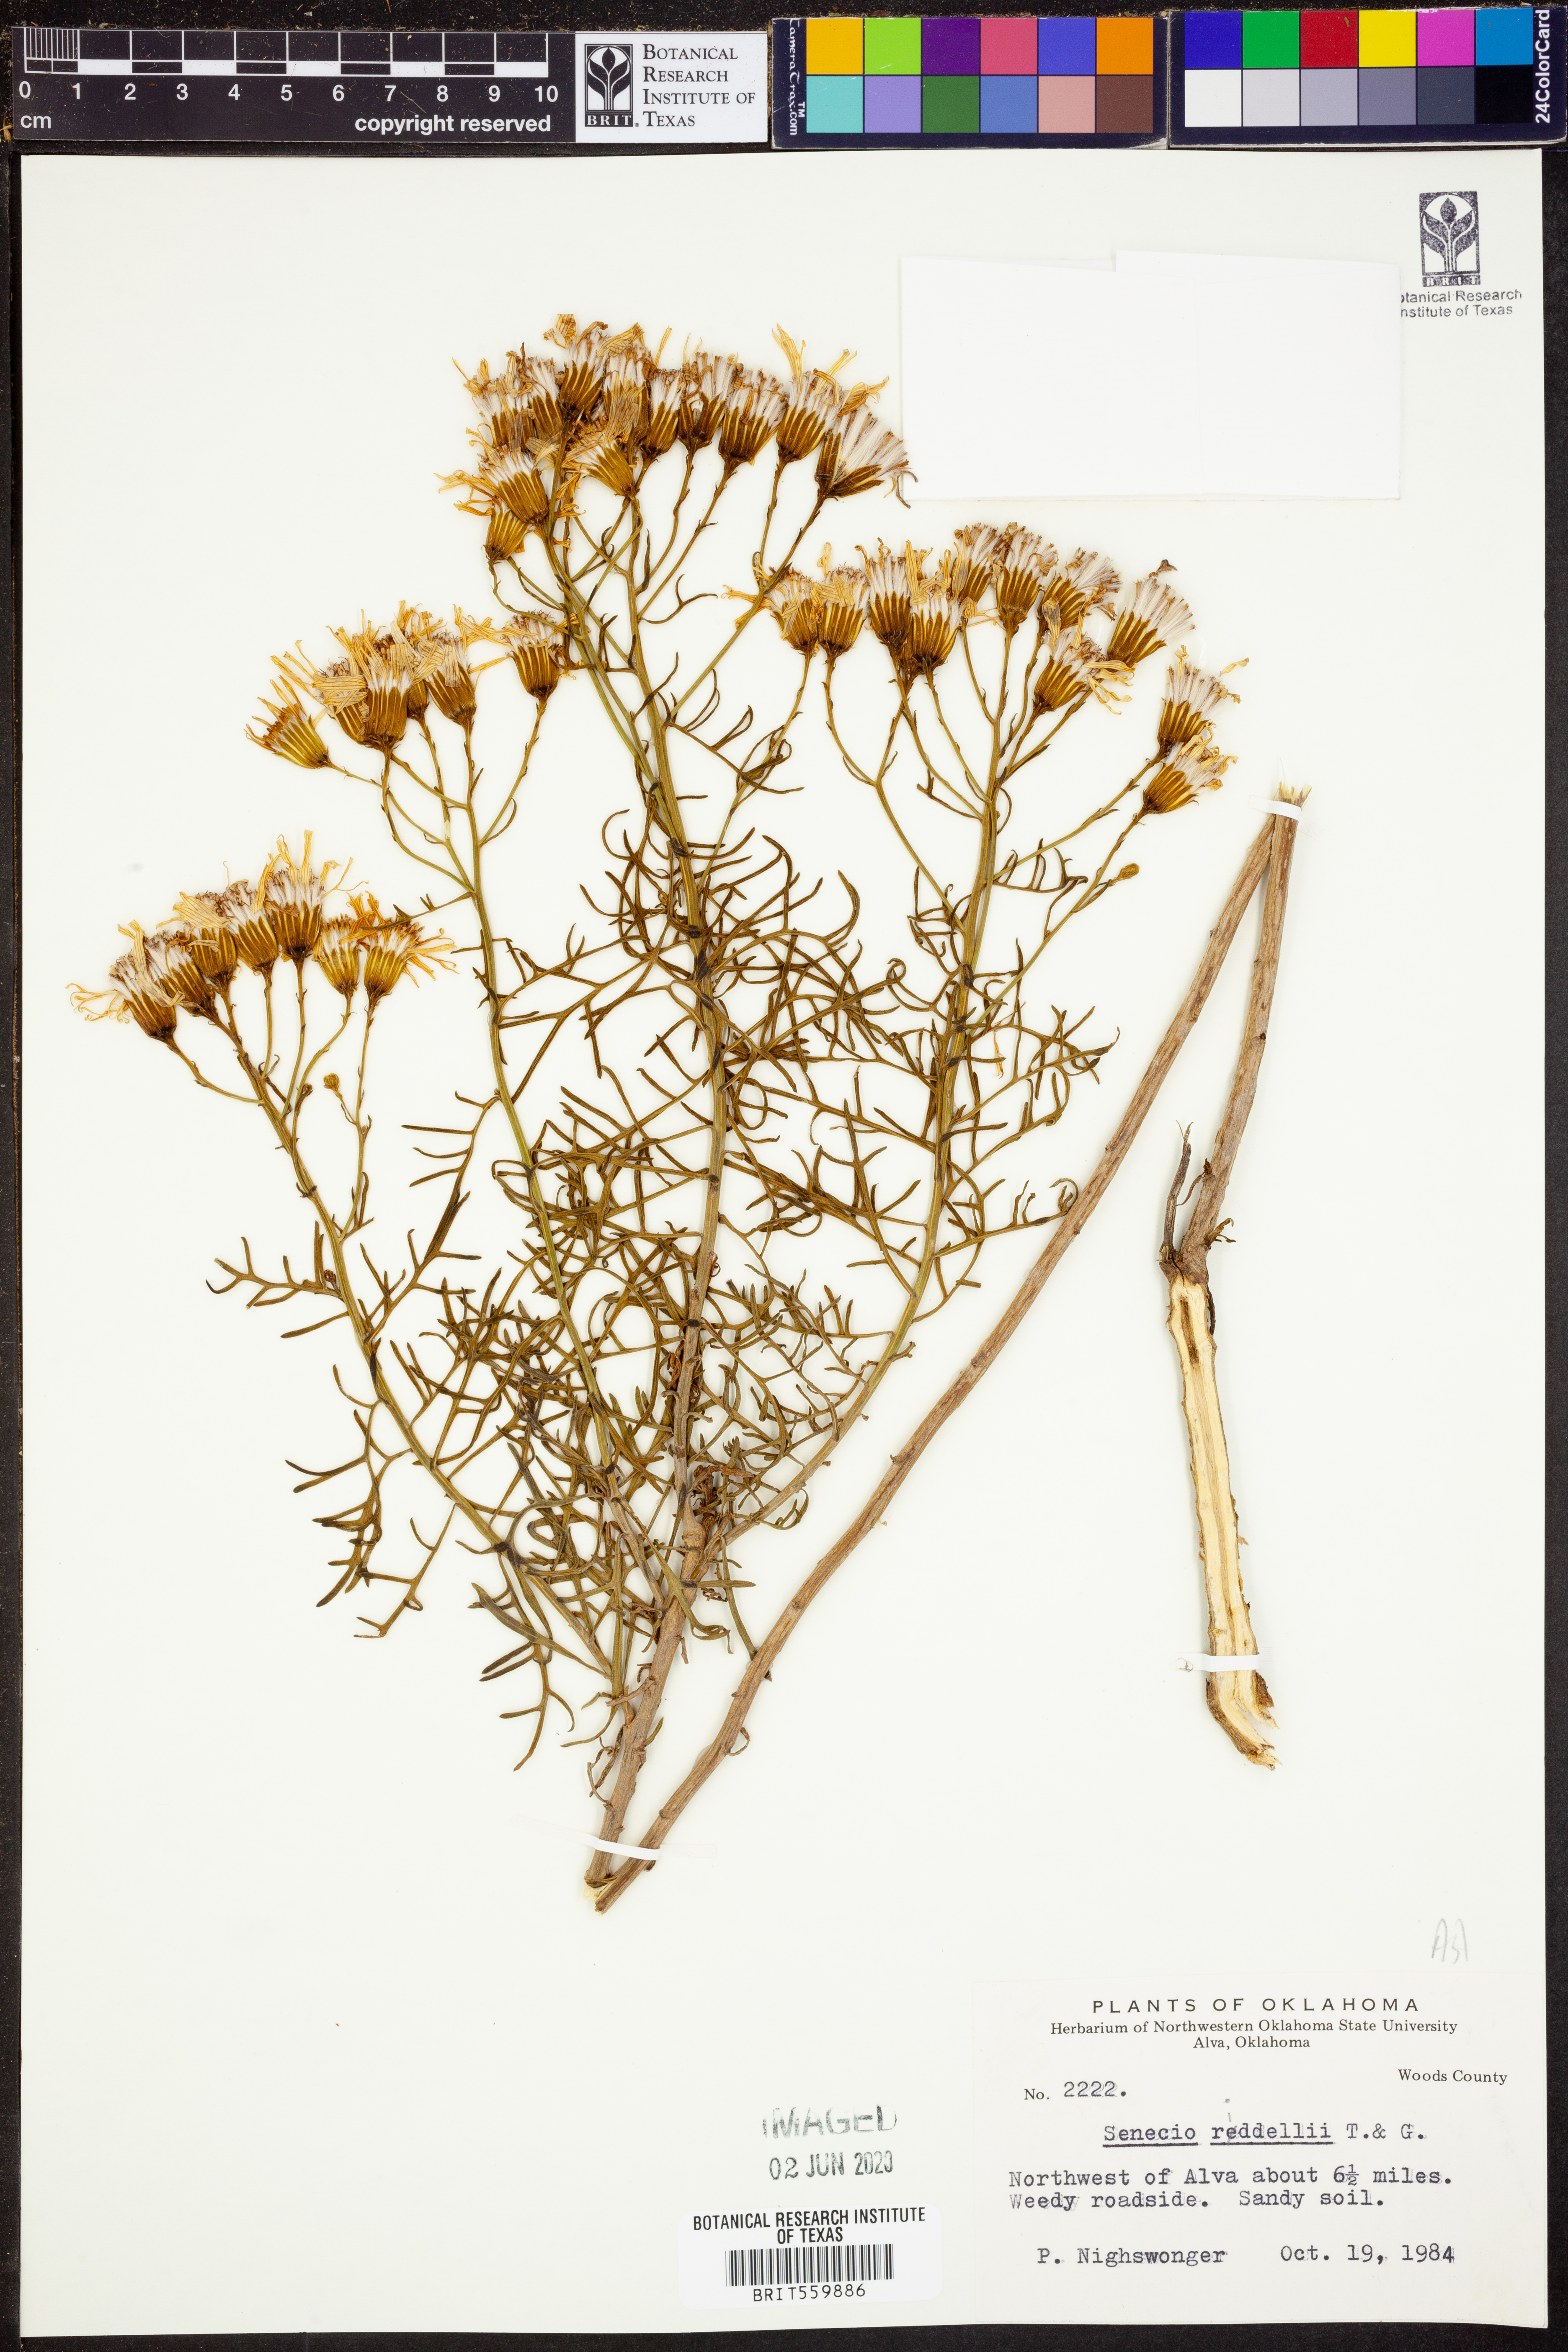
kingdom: Plantae
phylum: Tracheophyta
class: Magnoliopsida
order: Asterales
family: Asteraceae
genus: Senecio
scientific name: Senecio riddellii
